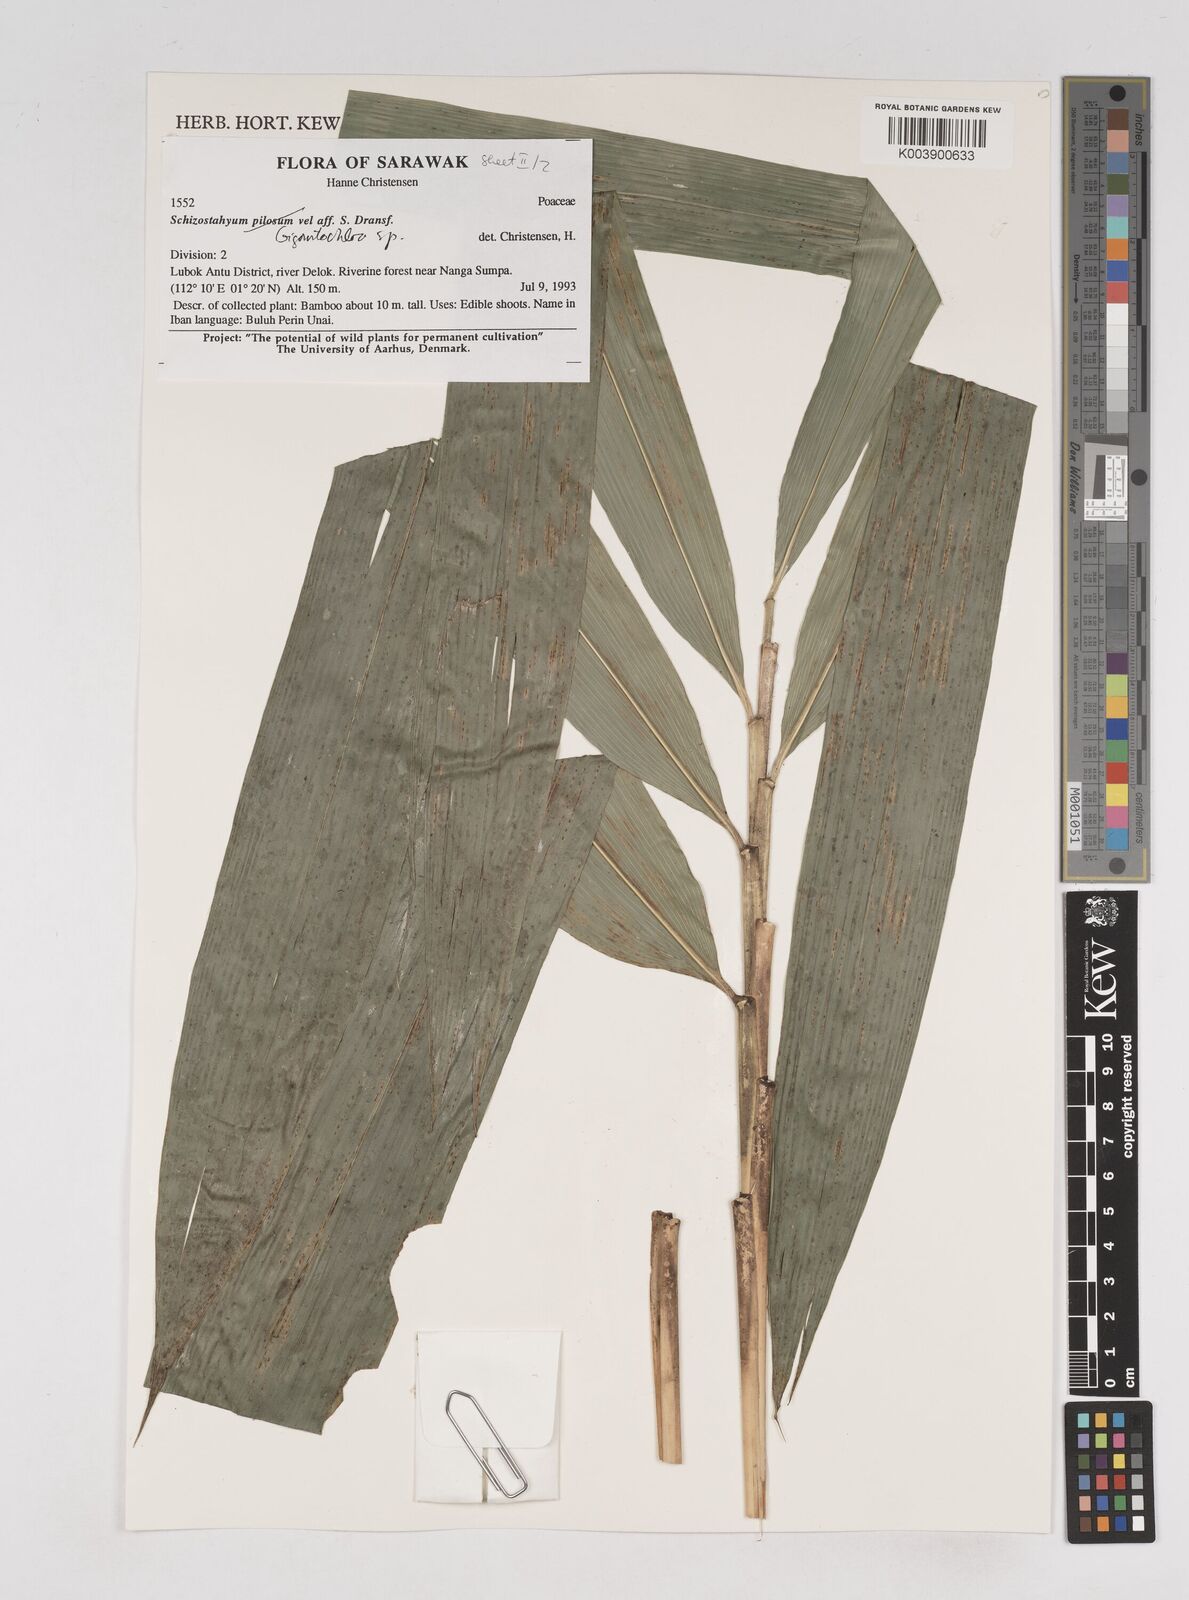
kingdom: Plantae
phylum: Tracheophyta
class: Liliopsida
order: Poales
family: Poaceae
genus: Gigantochloa
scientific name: Gigantochloa
